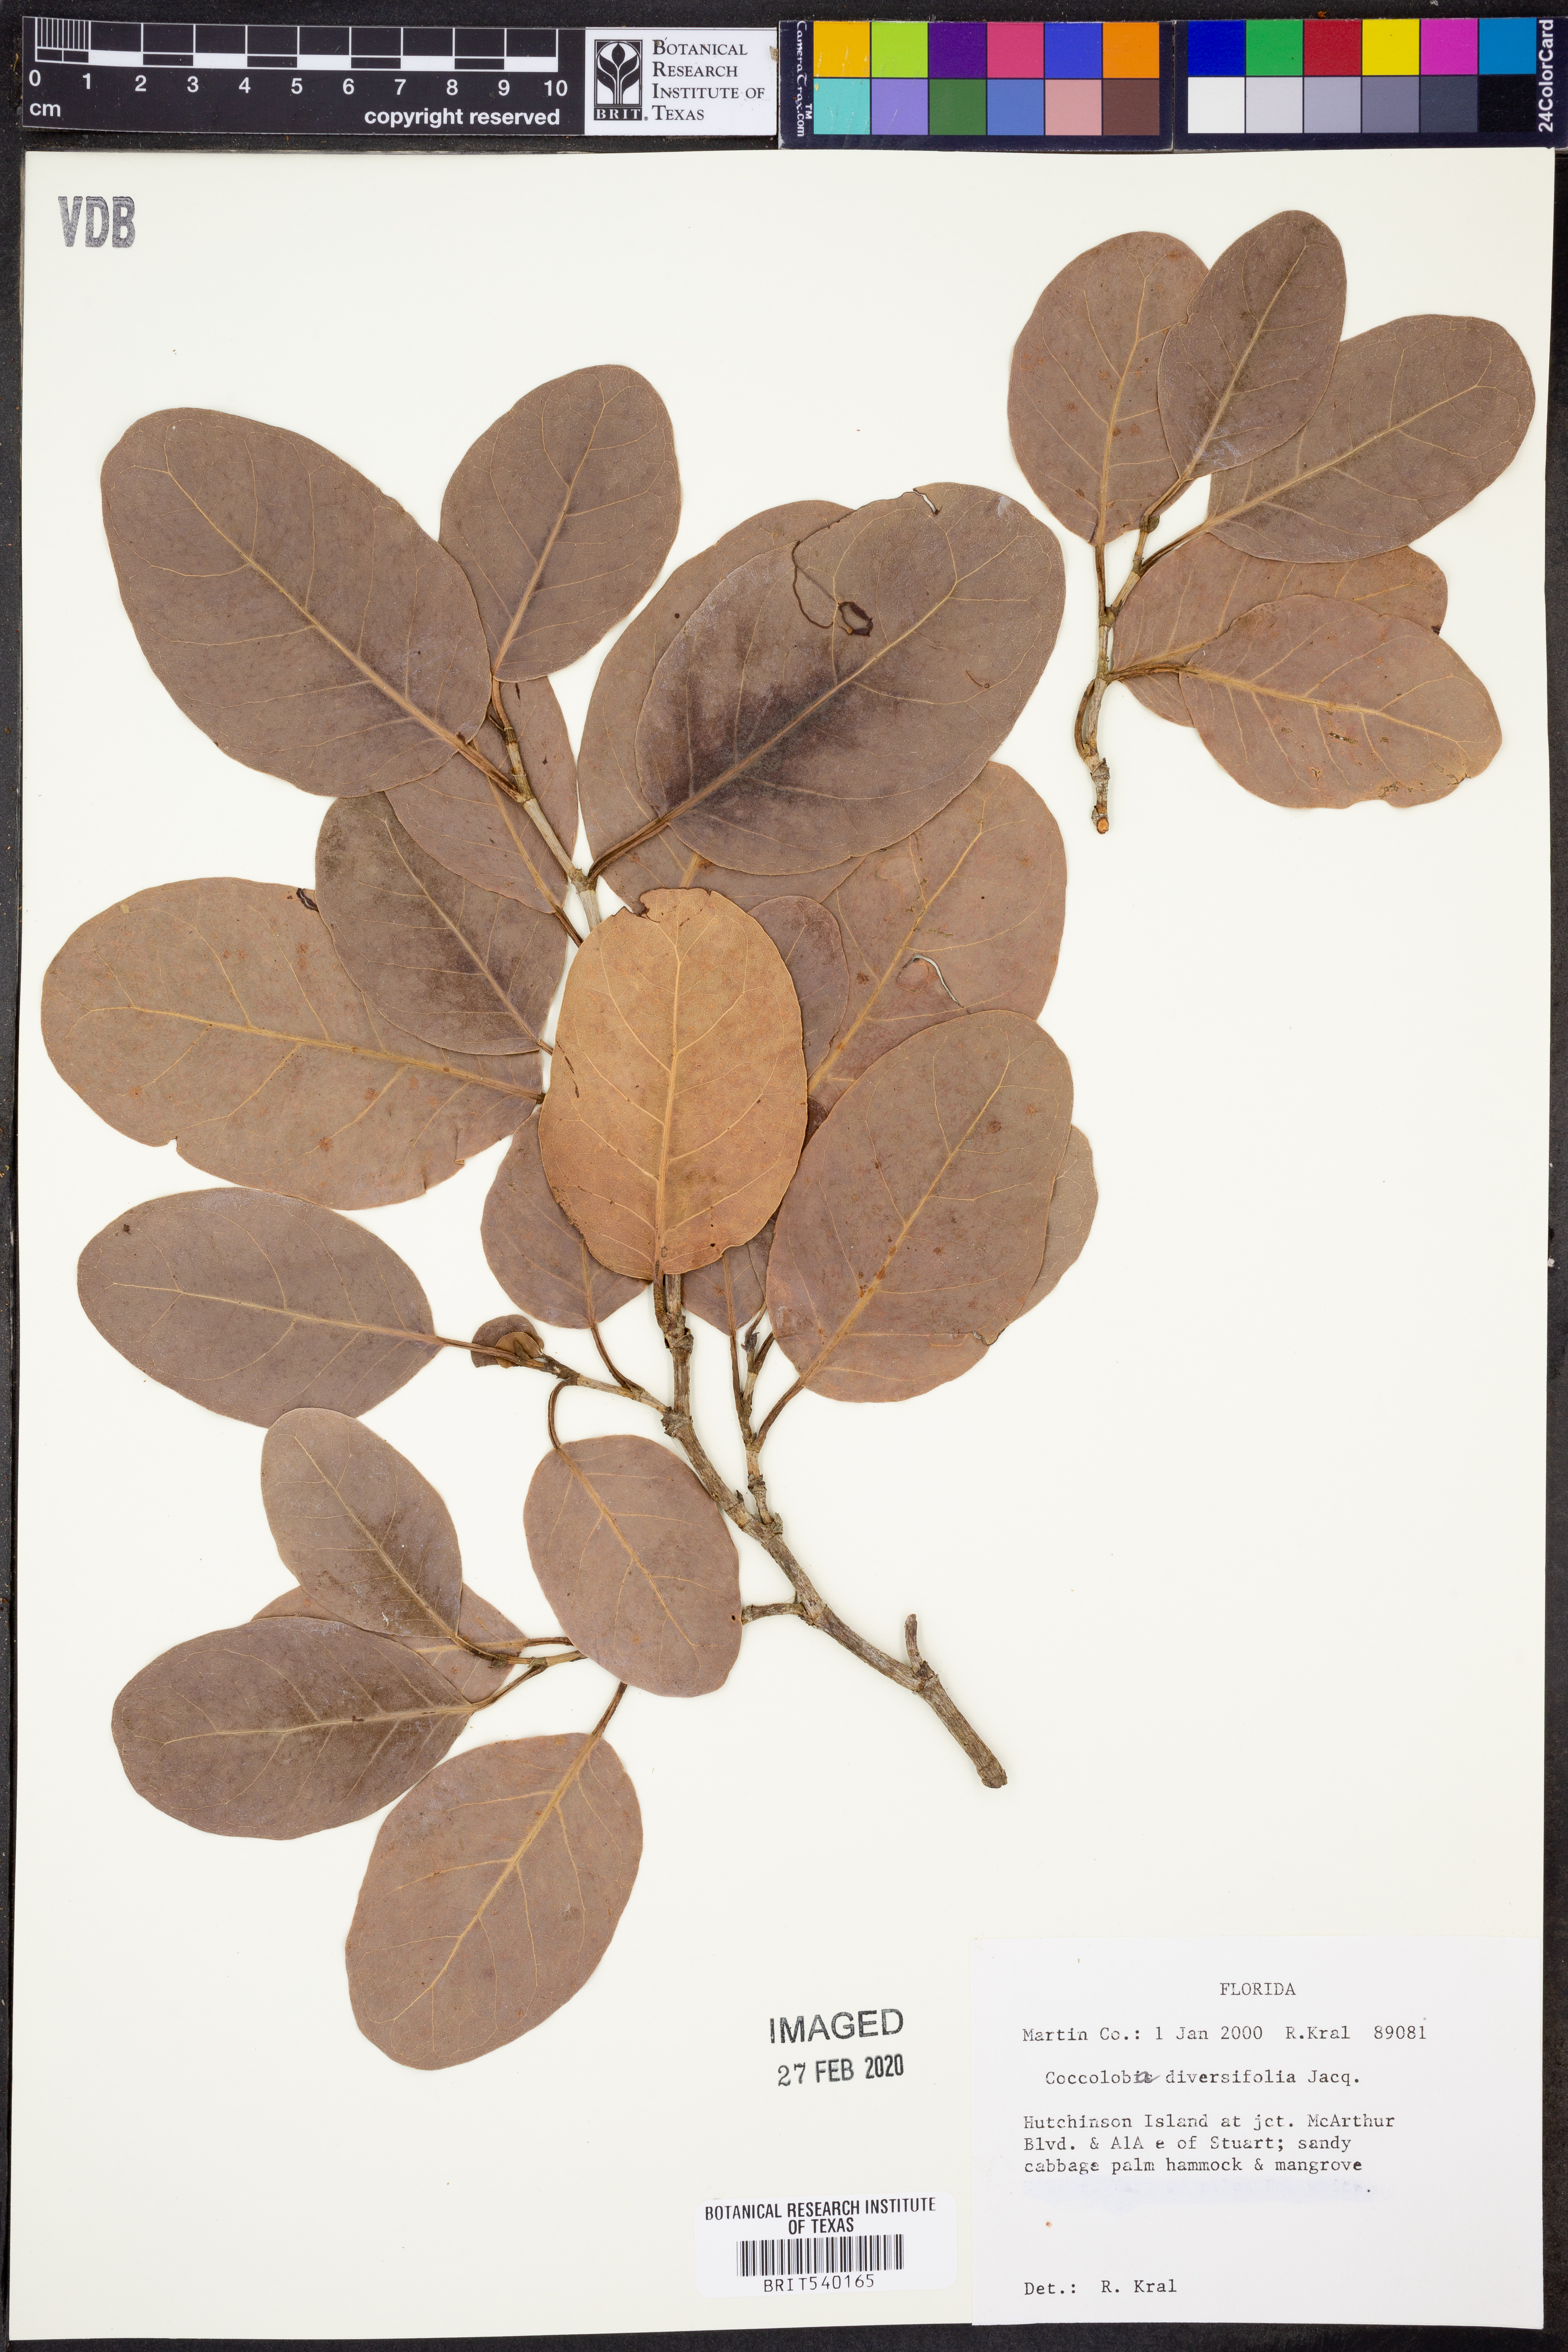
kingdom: Plantae
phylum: Tracheophyta
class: Magnoliopsida
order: Caryophyllales
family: Polygonaceae
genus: Coccoloba
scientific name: Coccoloba diversifolia
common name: Pigeon-plum
